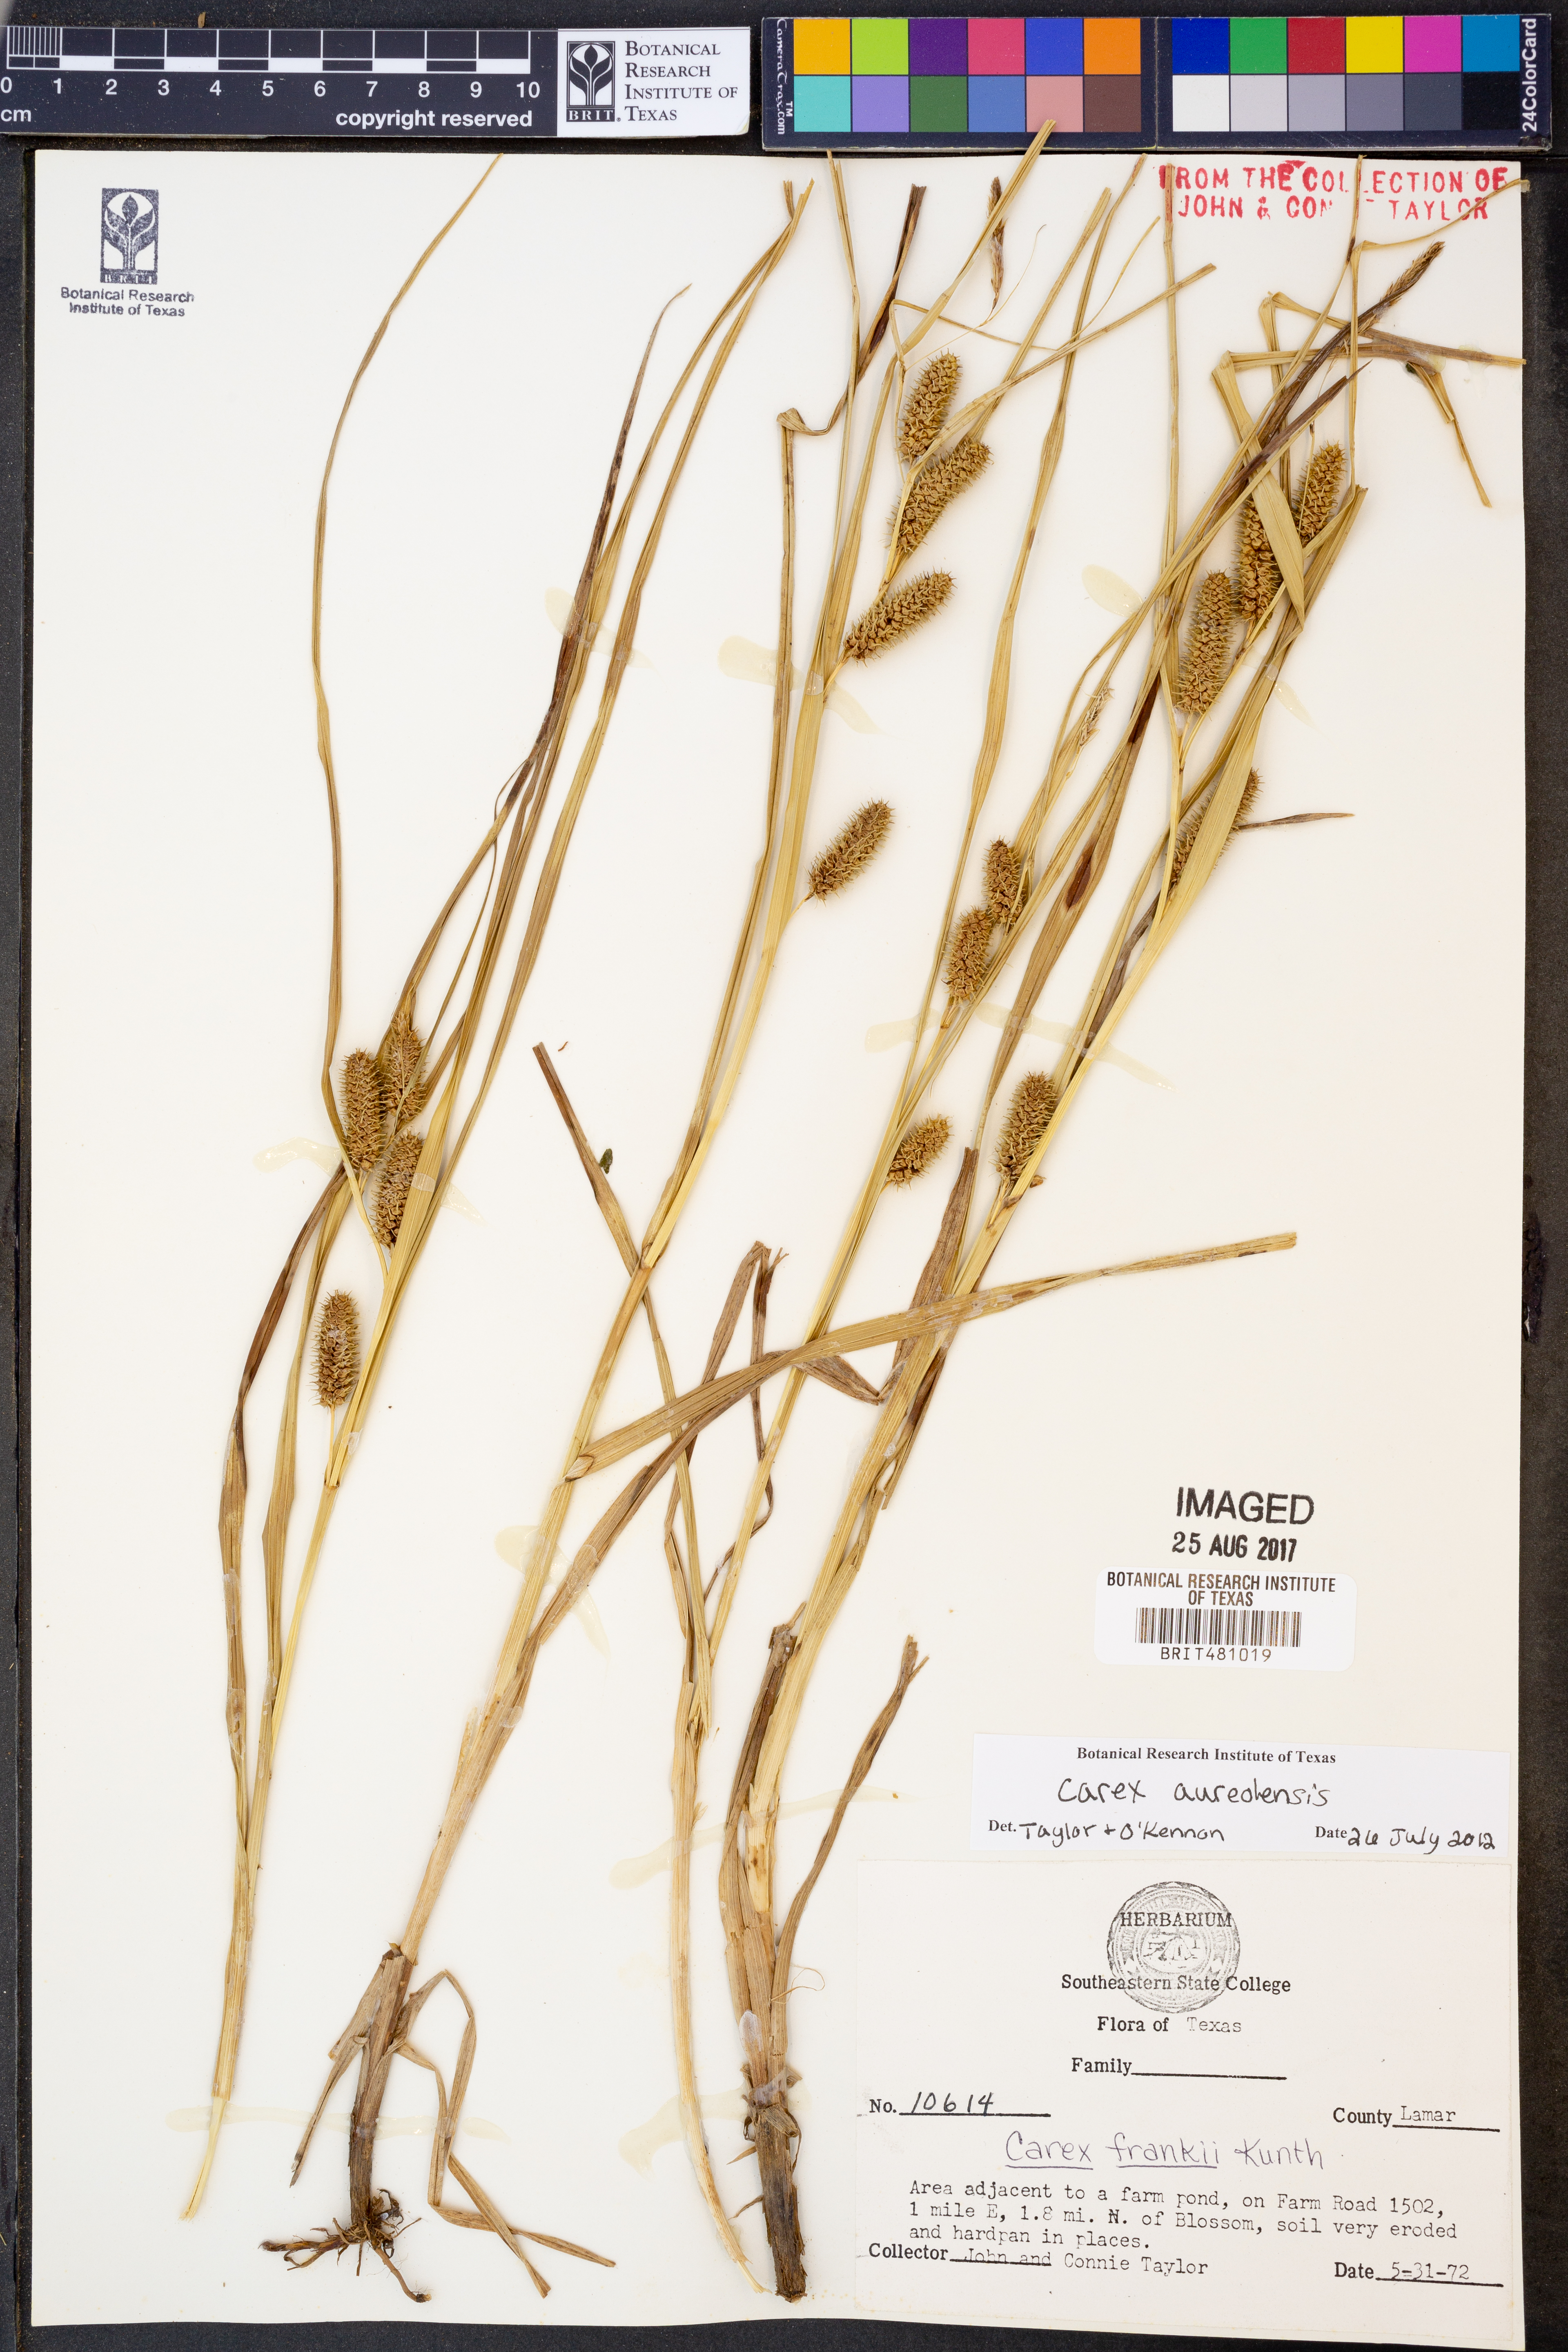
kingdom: Plantae
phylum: Tracheophyta
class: Liliopsida
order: Poales
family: Cyperaceae
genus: Carex
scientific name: Carex aureolensis
